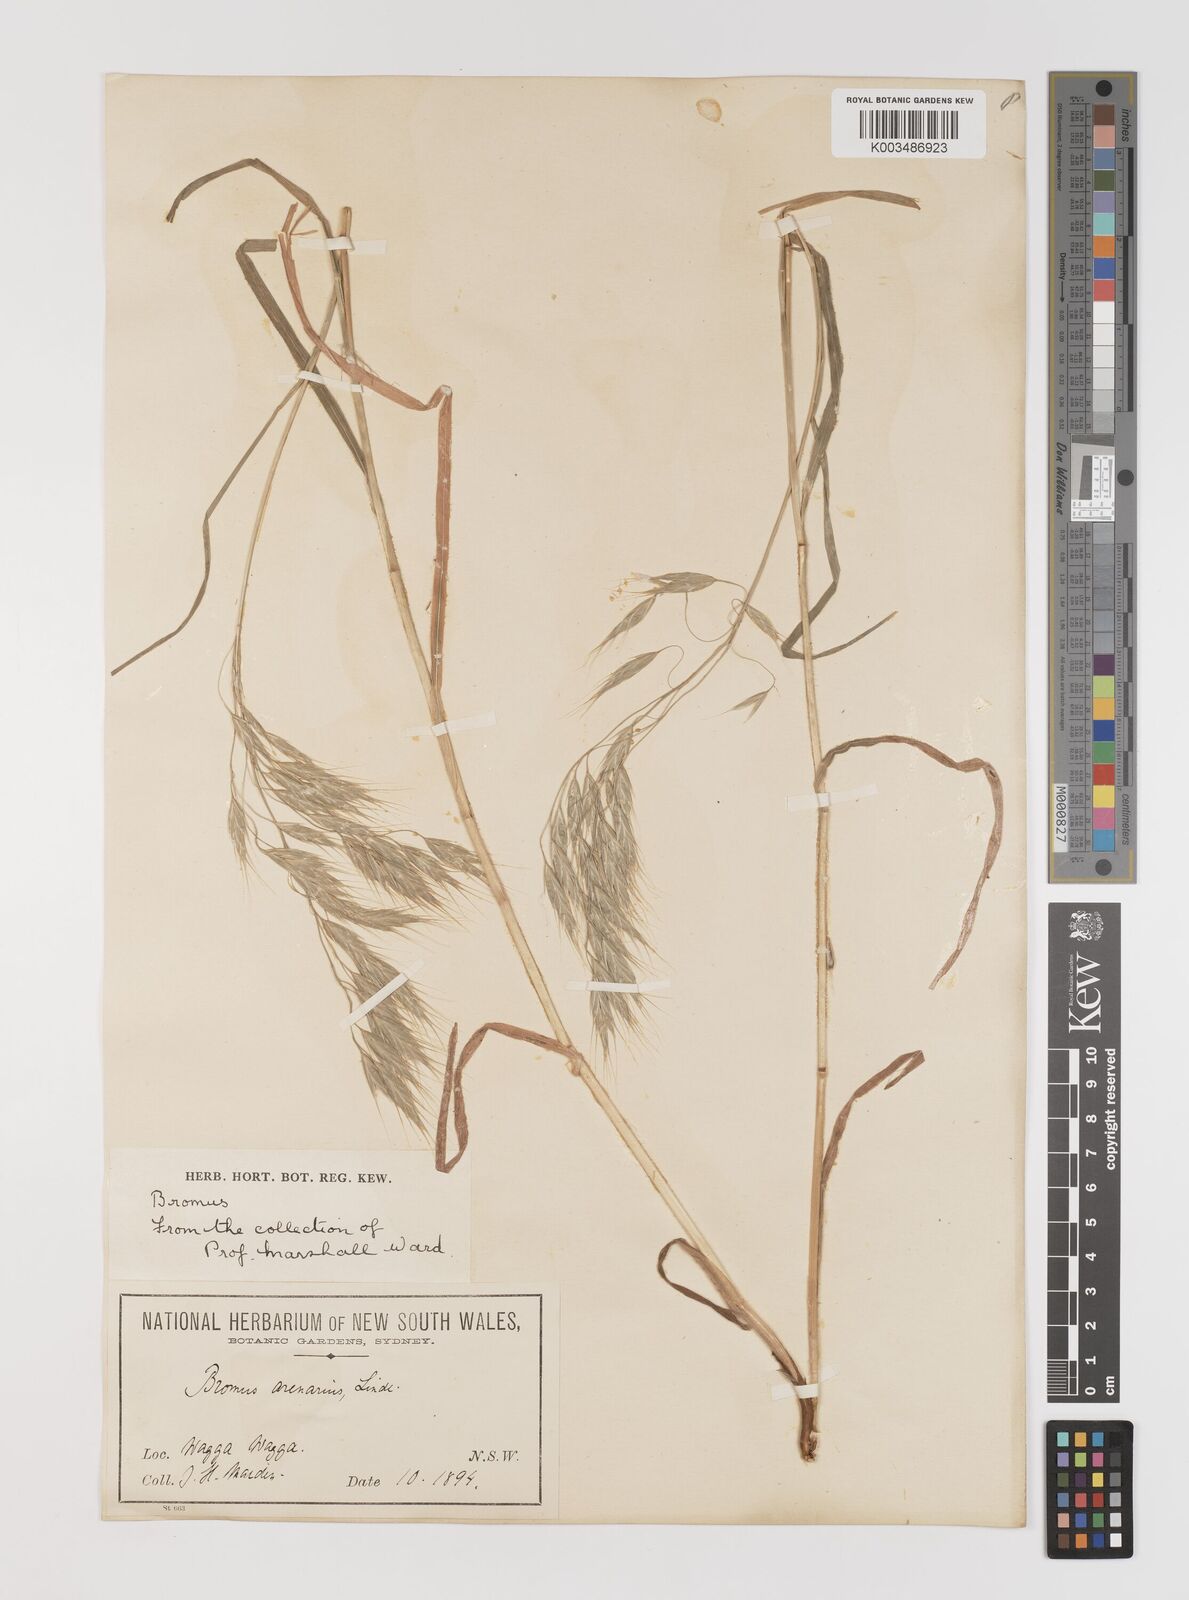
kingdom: Plantae
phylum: Tracheophyta
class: Liliopsida
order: Poales
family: Poaceae
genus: Bromus
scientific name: Bromus arenarius
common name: Australian brome
